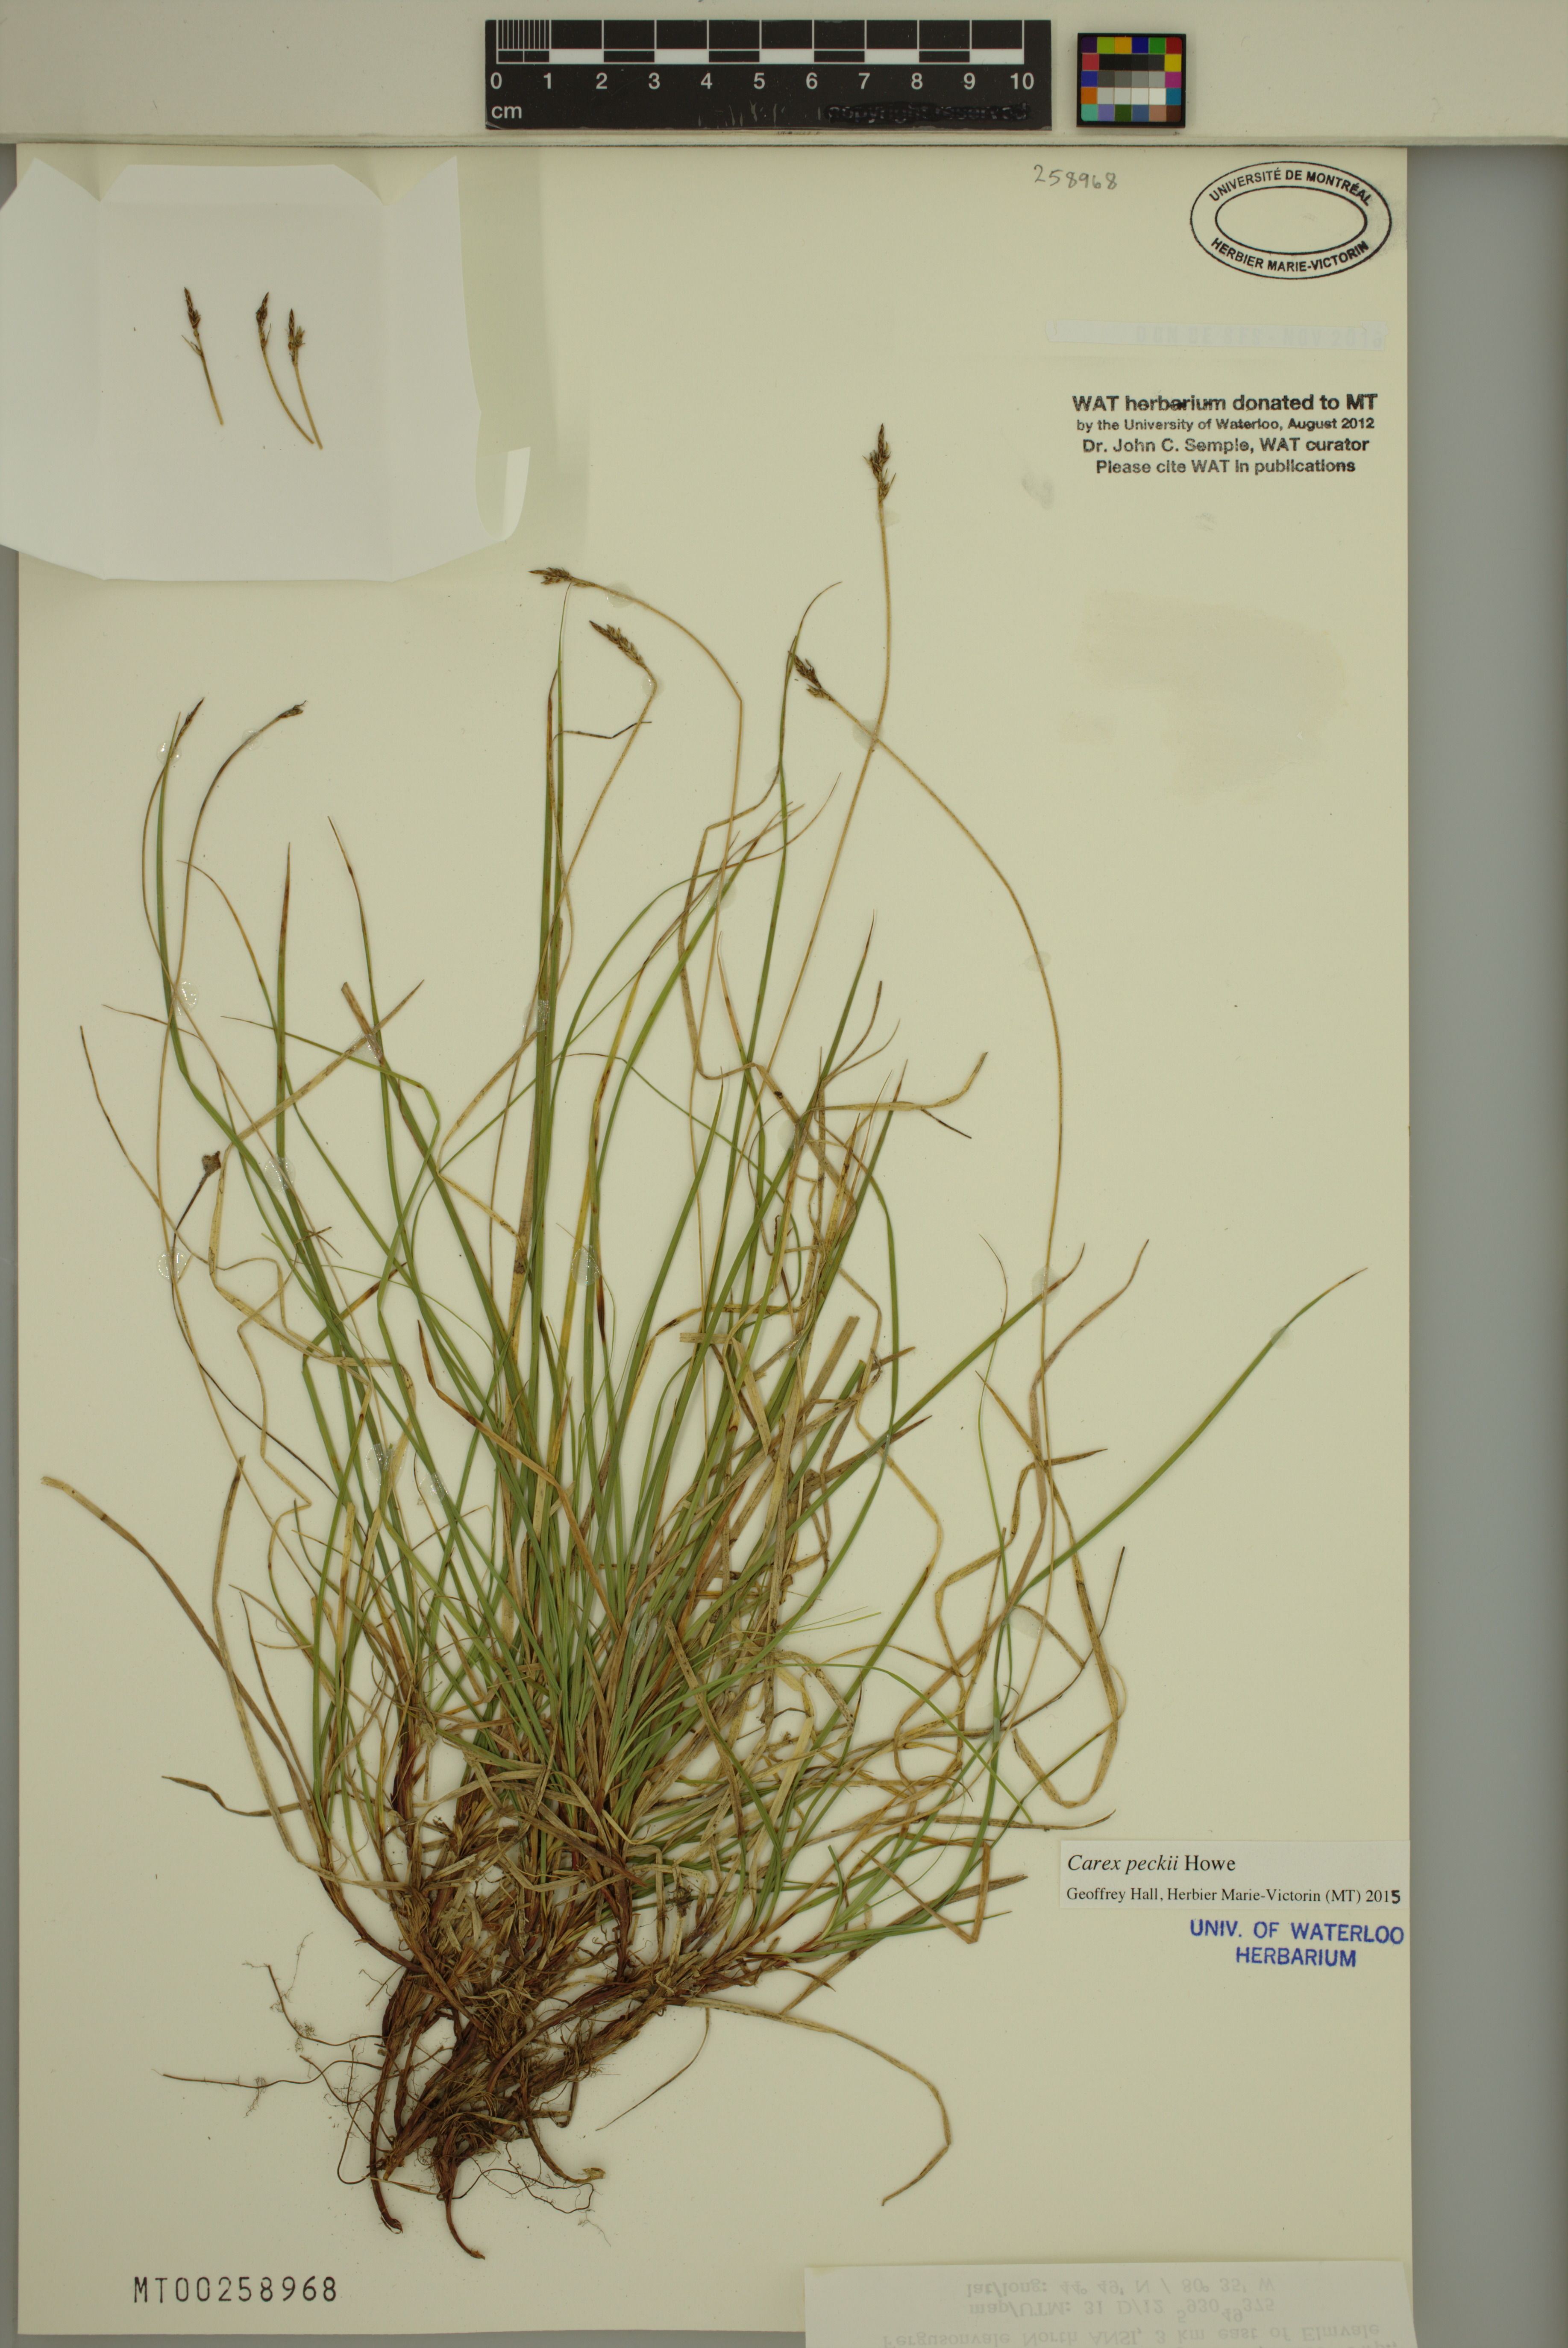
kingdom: Plantae
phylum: Tracheophyta
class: Liliopsida
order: Poales
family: Cyperaceae
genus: Carex
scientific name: Carex peckii
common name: Peck's oak sedge
